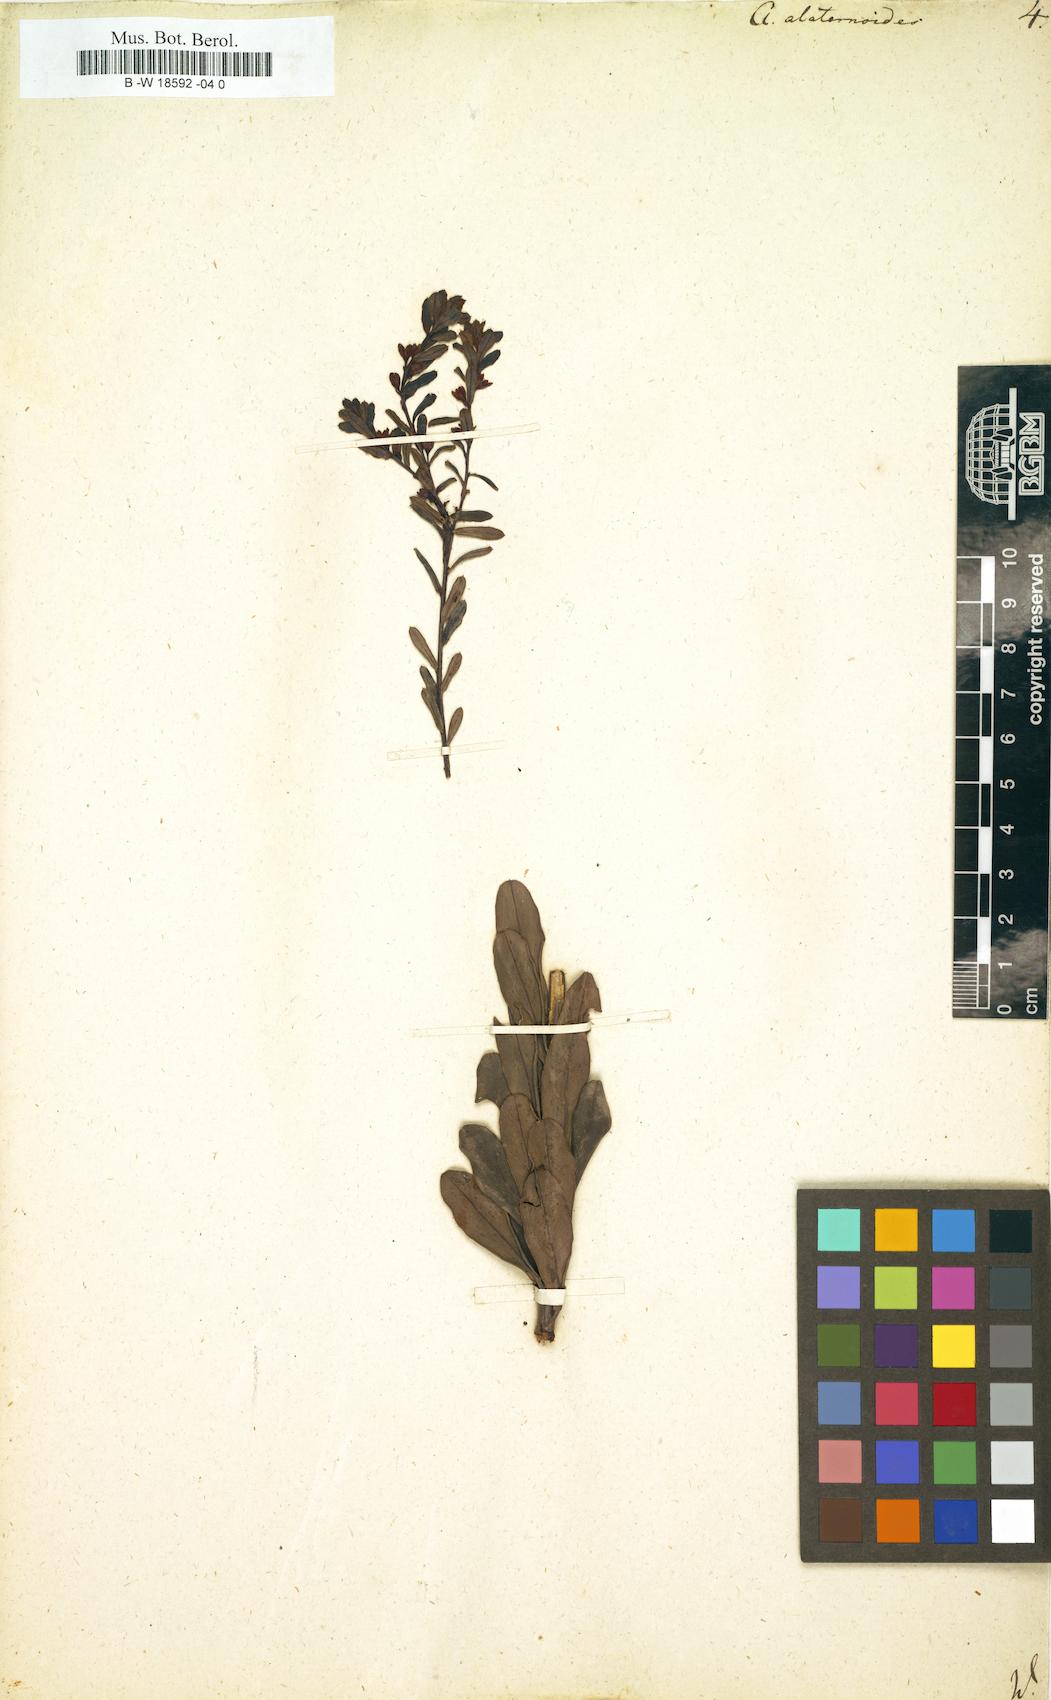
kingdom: Plantae
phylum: Tracheophyta
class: Magnoliopsida
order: Malpighiales
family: Peraceae
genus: Clutia
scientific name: Clutia
